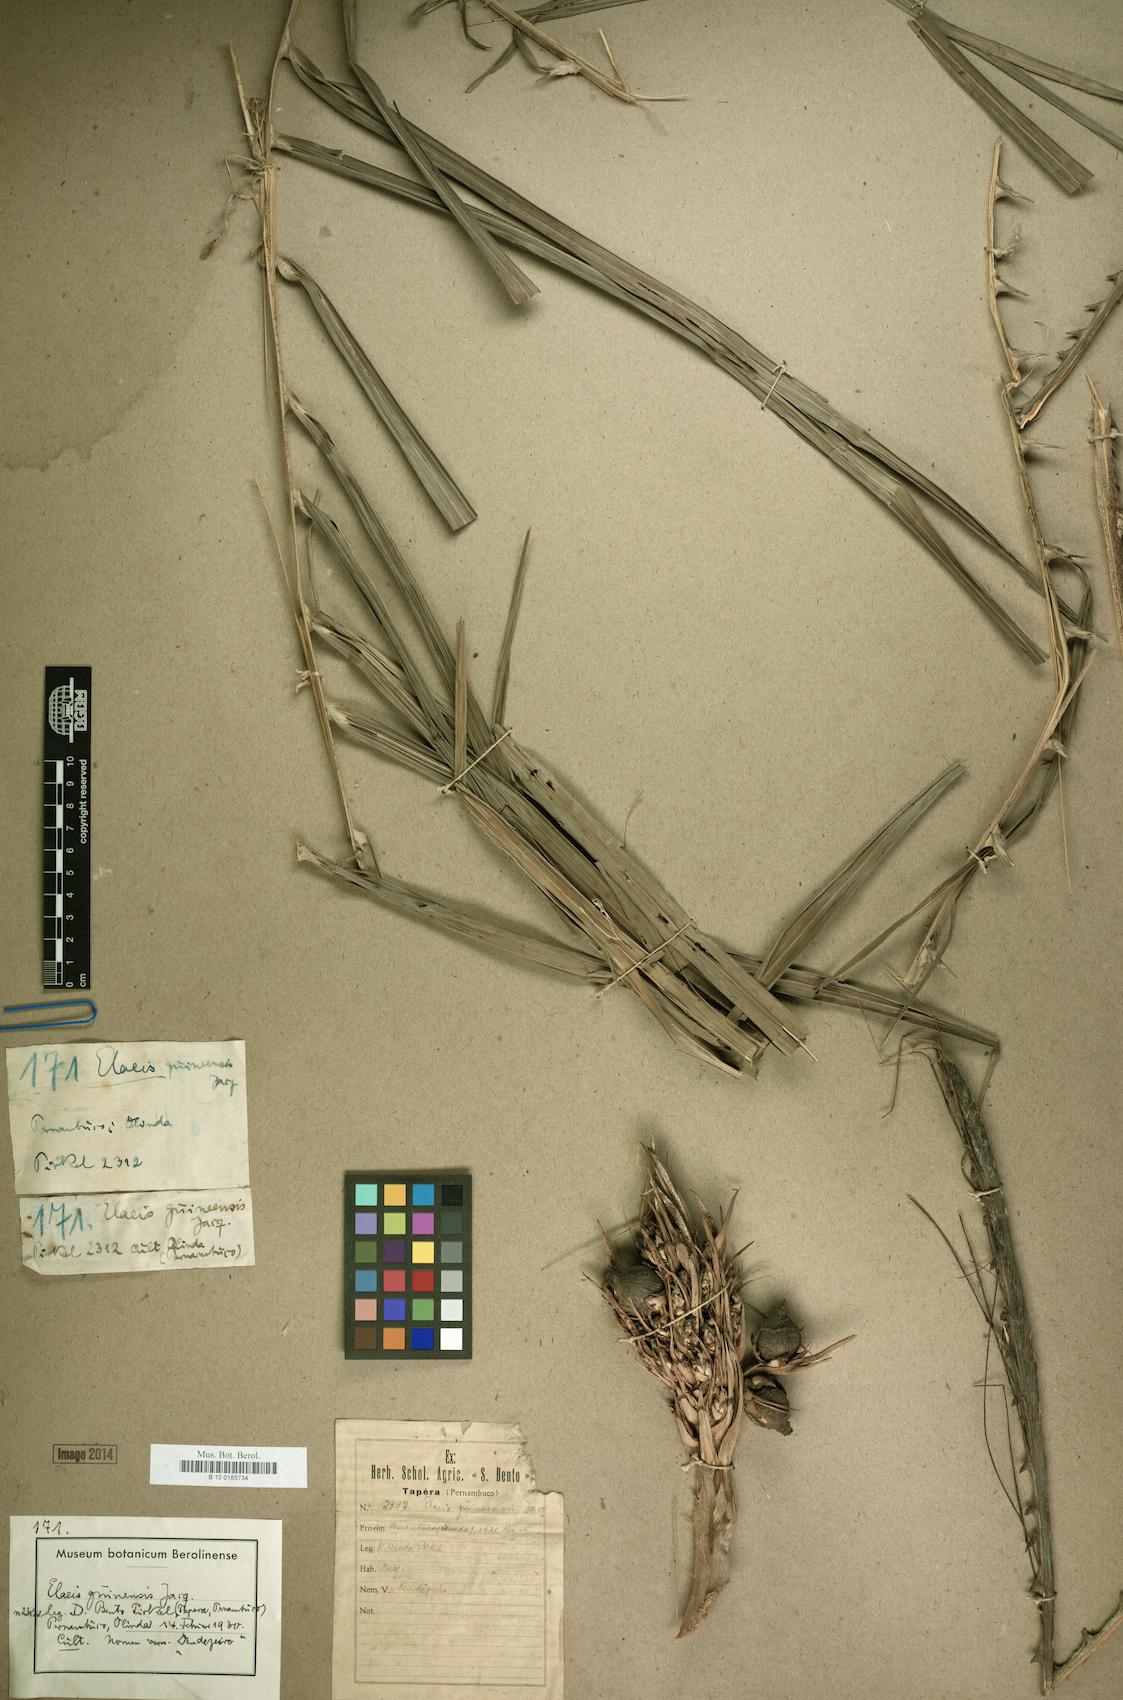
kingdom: Plantae
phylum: Tracheophyta
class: Liliopsida
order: Arecales
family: Arecaceae
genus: Elaeis
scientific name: Elaeis guineensis
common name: Oil palm
